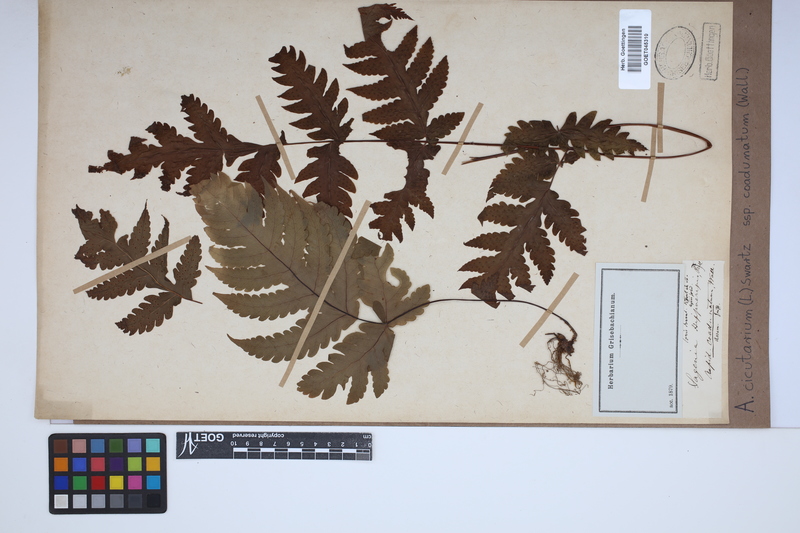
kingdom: Plantae
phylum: Tracheophyta
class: Polypodiopsida
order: Polypodiales
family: Tectariaceae
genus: Tectaria
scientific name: Tectaria cicutaria
